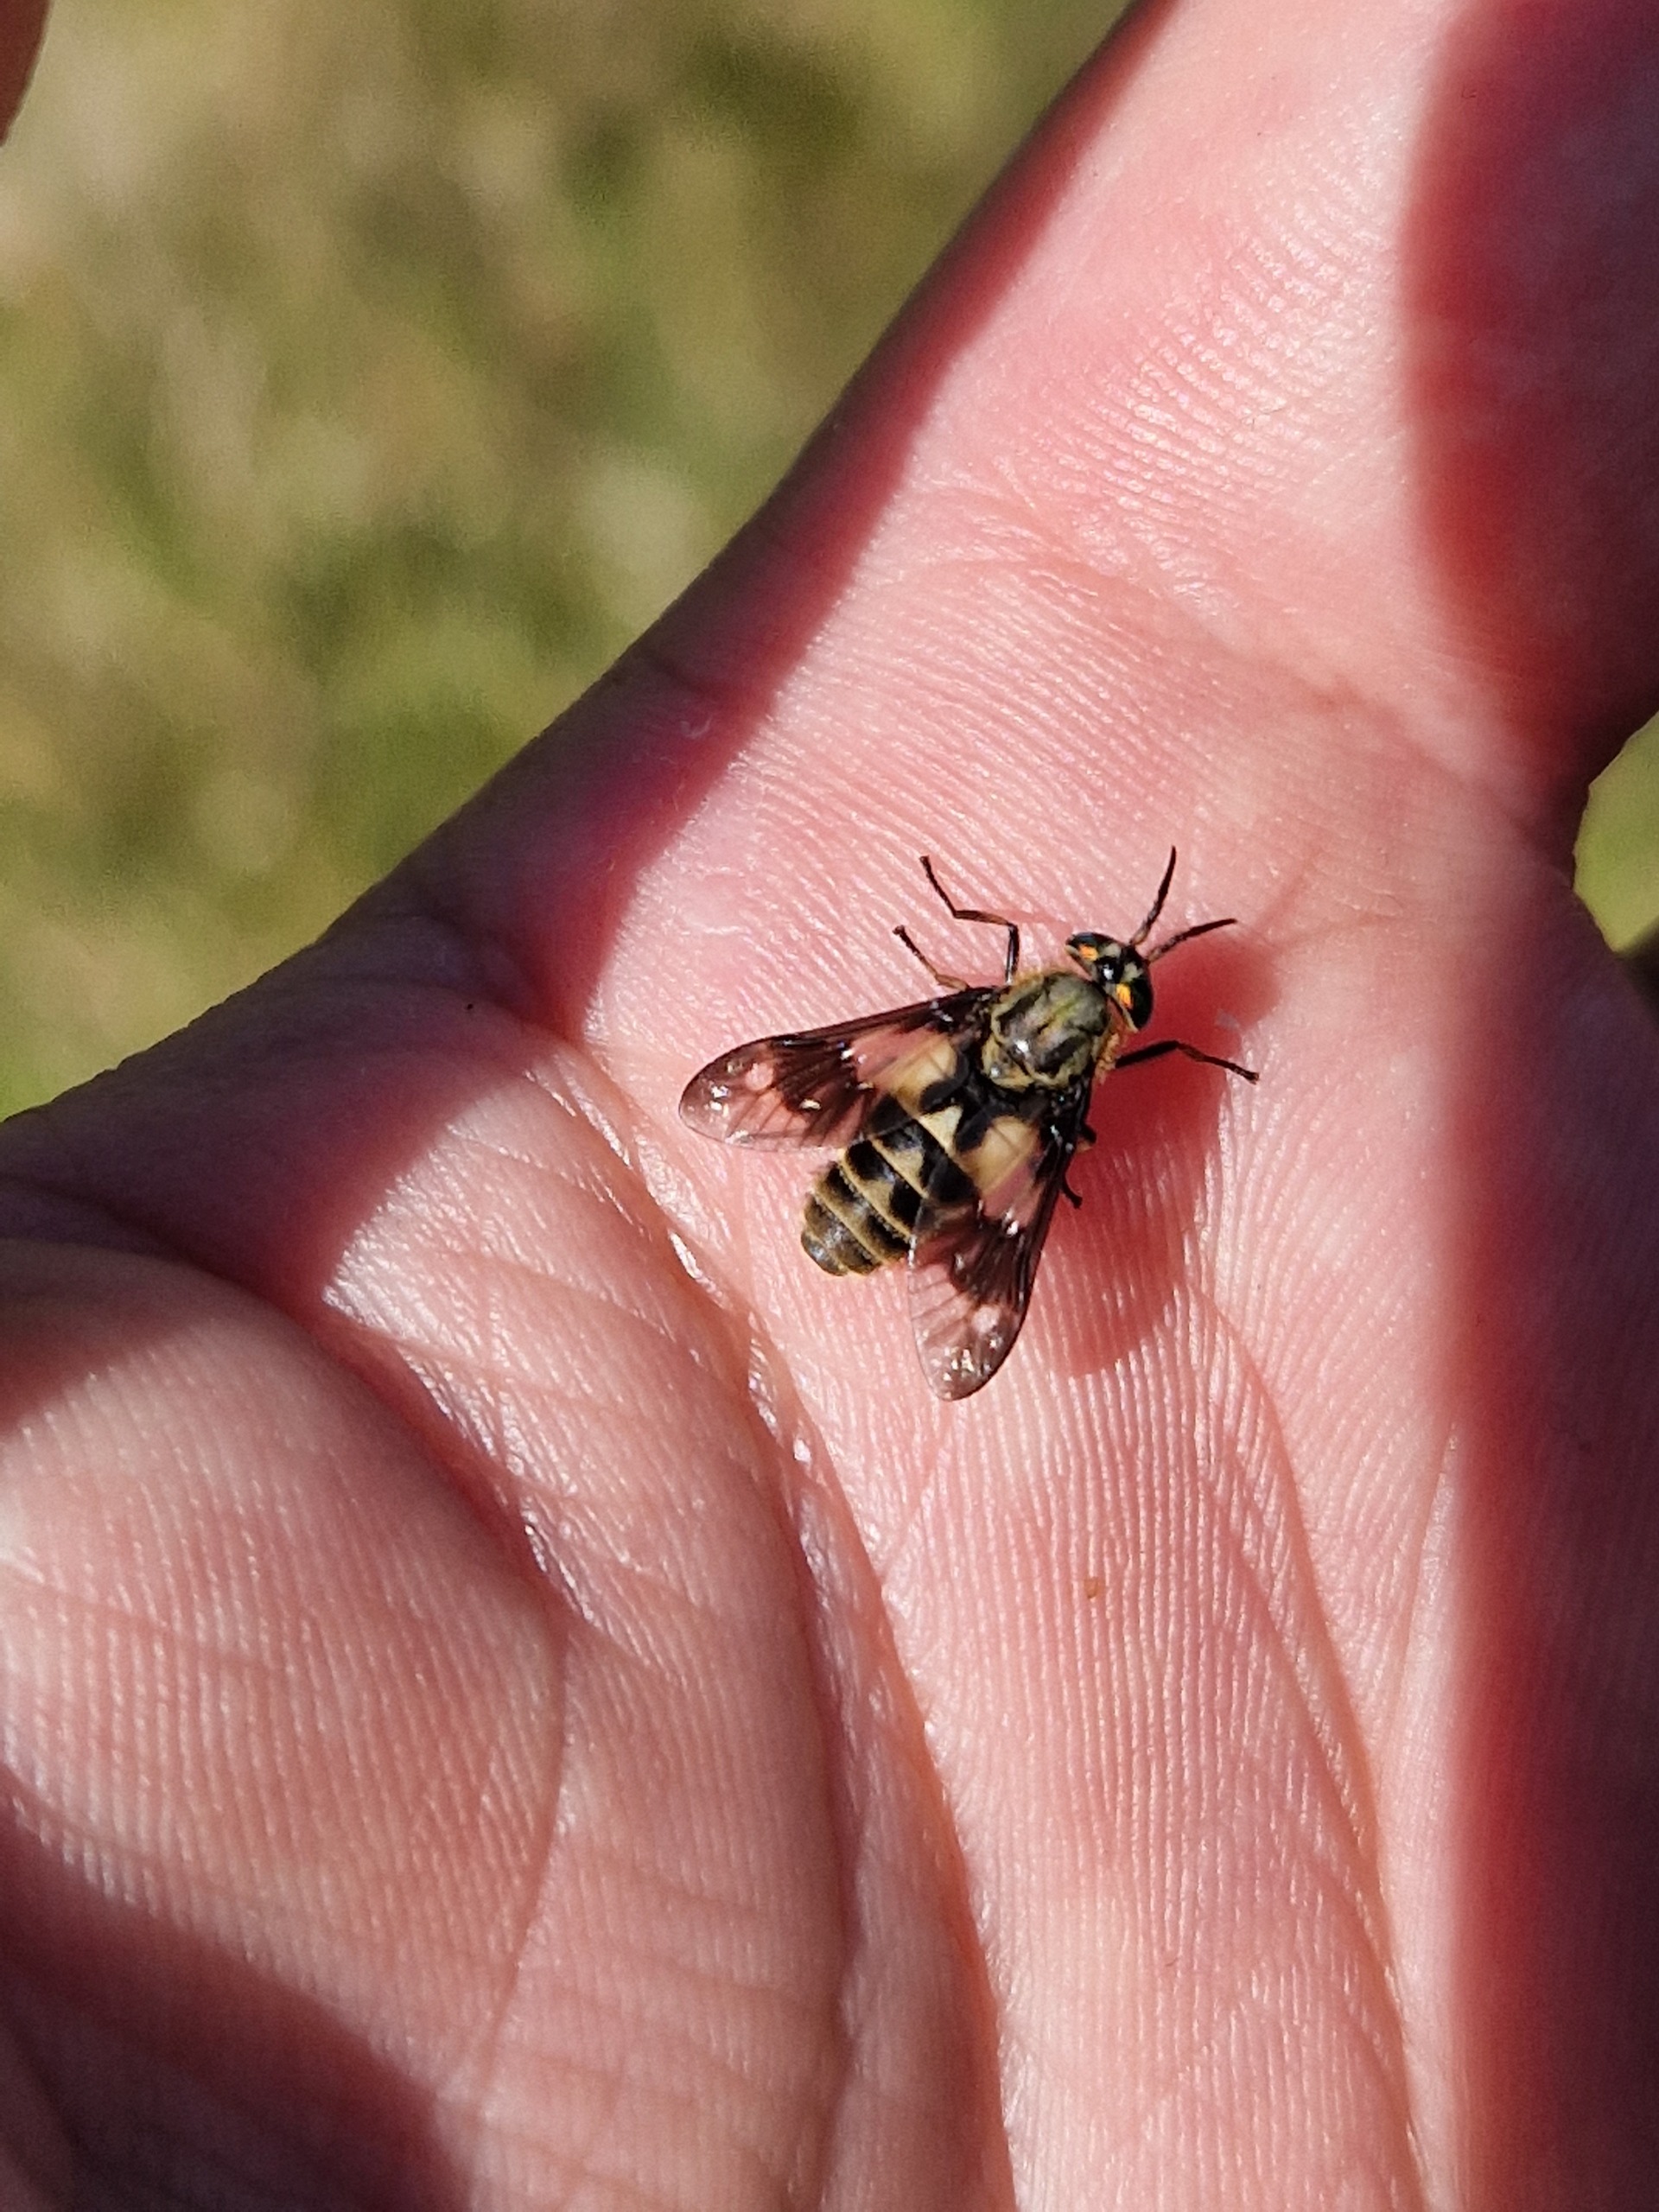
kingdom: Animalia
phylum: Arthropoda
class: Insecta
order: Diptera
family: Tabanidae
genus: Chrysops
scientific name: Chrysops relictus
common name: Guldklæg
